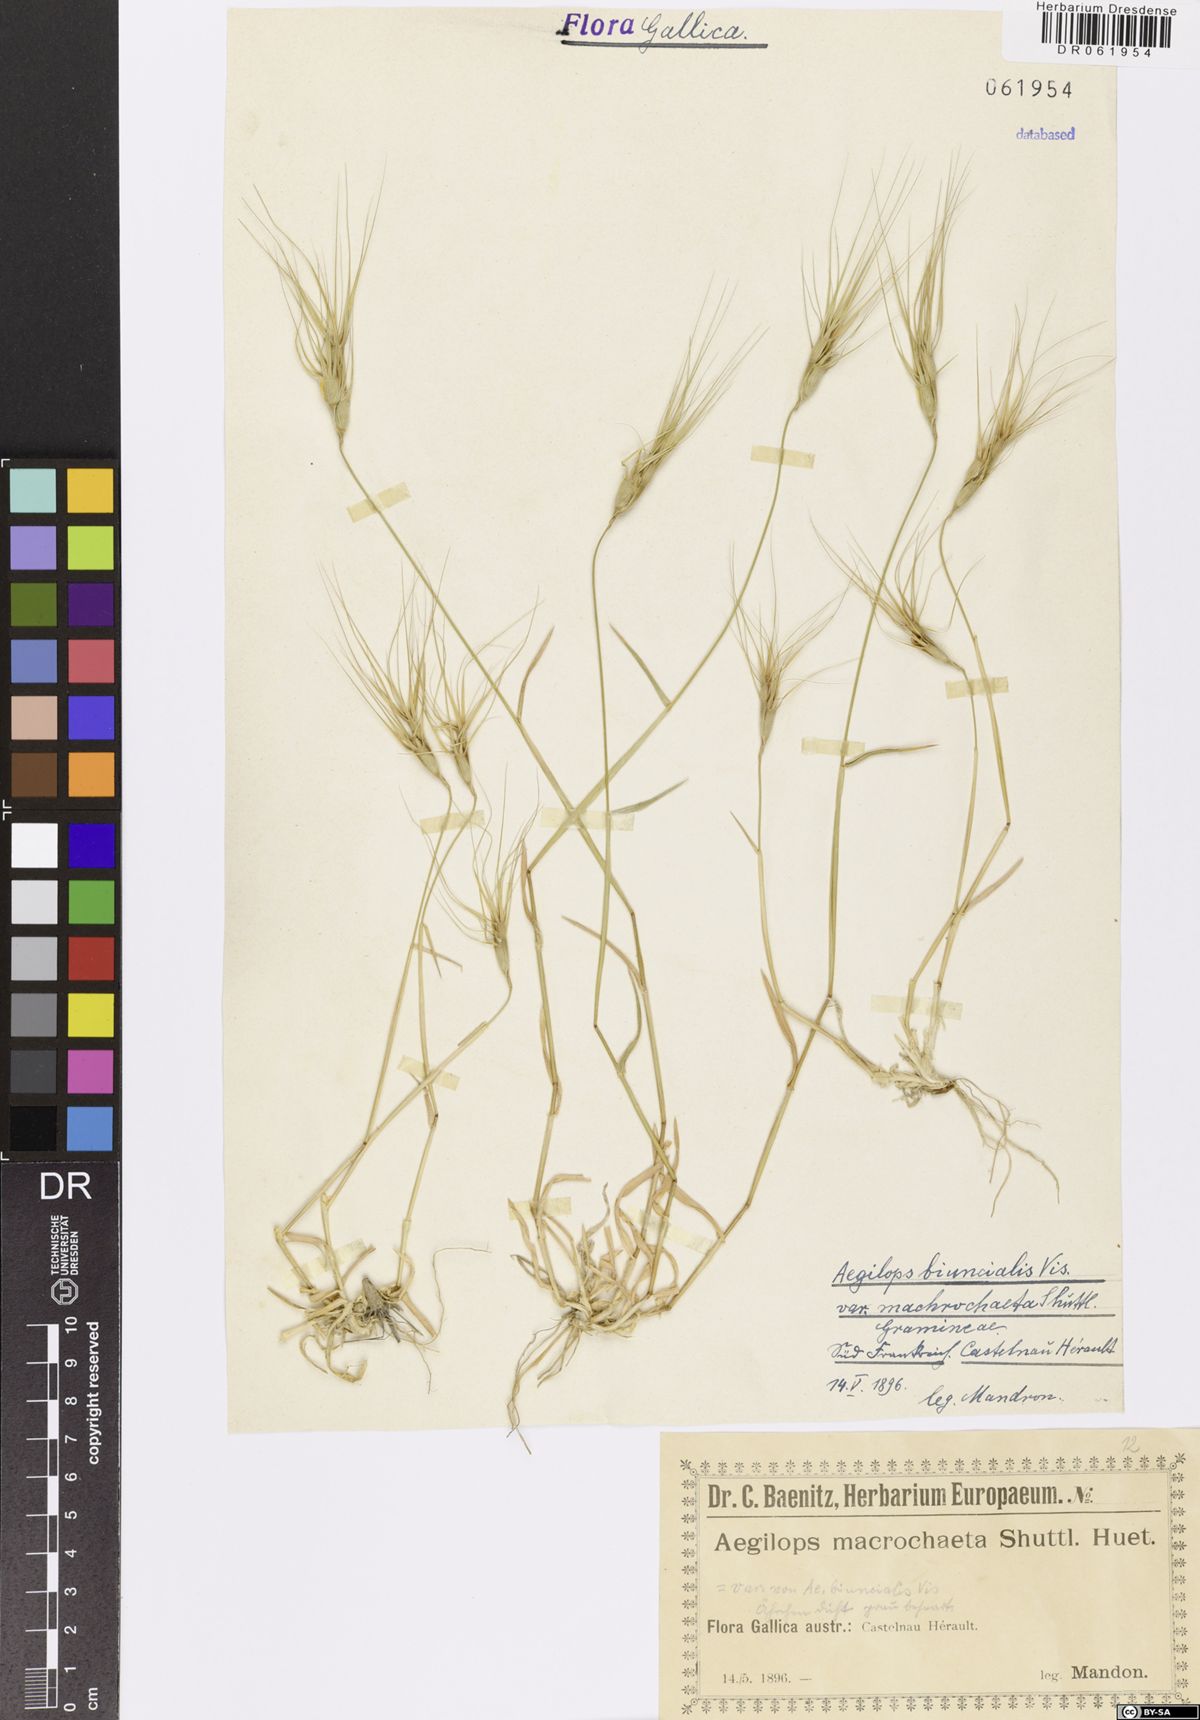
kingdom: Plantae
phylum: Tracheophyta
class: Liliopsida
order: Poales
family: Poaceae
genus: Aegilops
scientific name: Aegilops biuncialis
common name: Mediterranean aegilops
